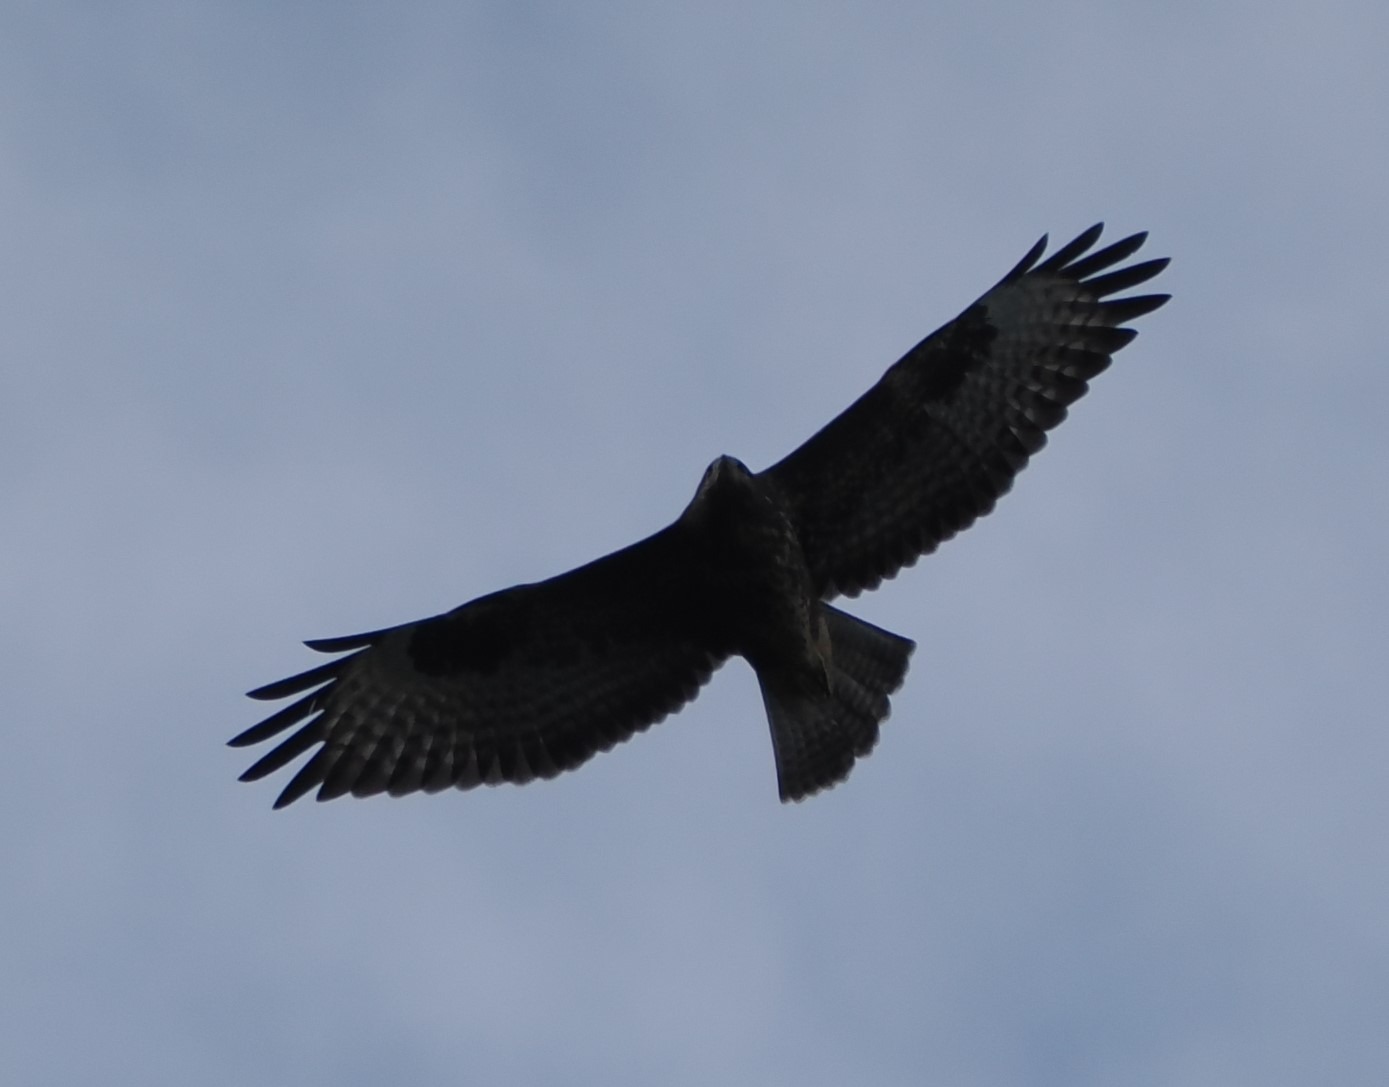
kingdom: Animalia
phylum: Chordata
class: Aves
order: Accipitriformes
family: Accipitridae
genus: Buteo
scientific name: Buteo buteo
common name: Musvåge
